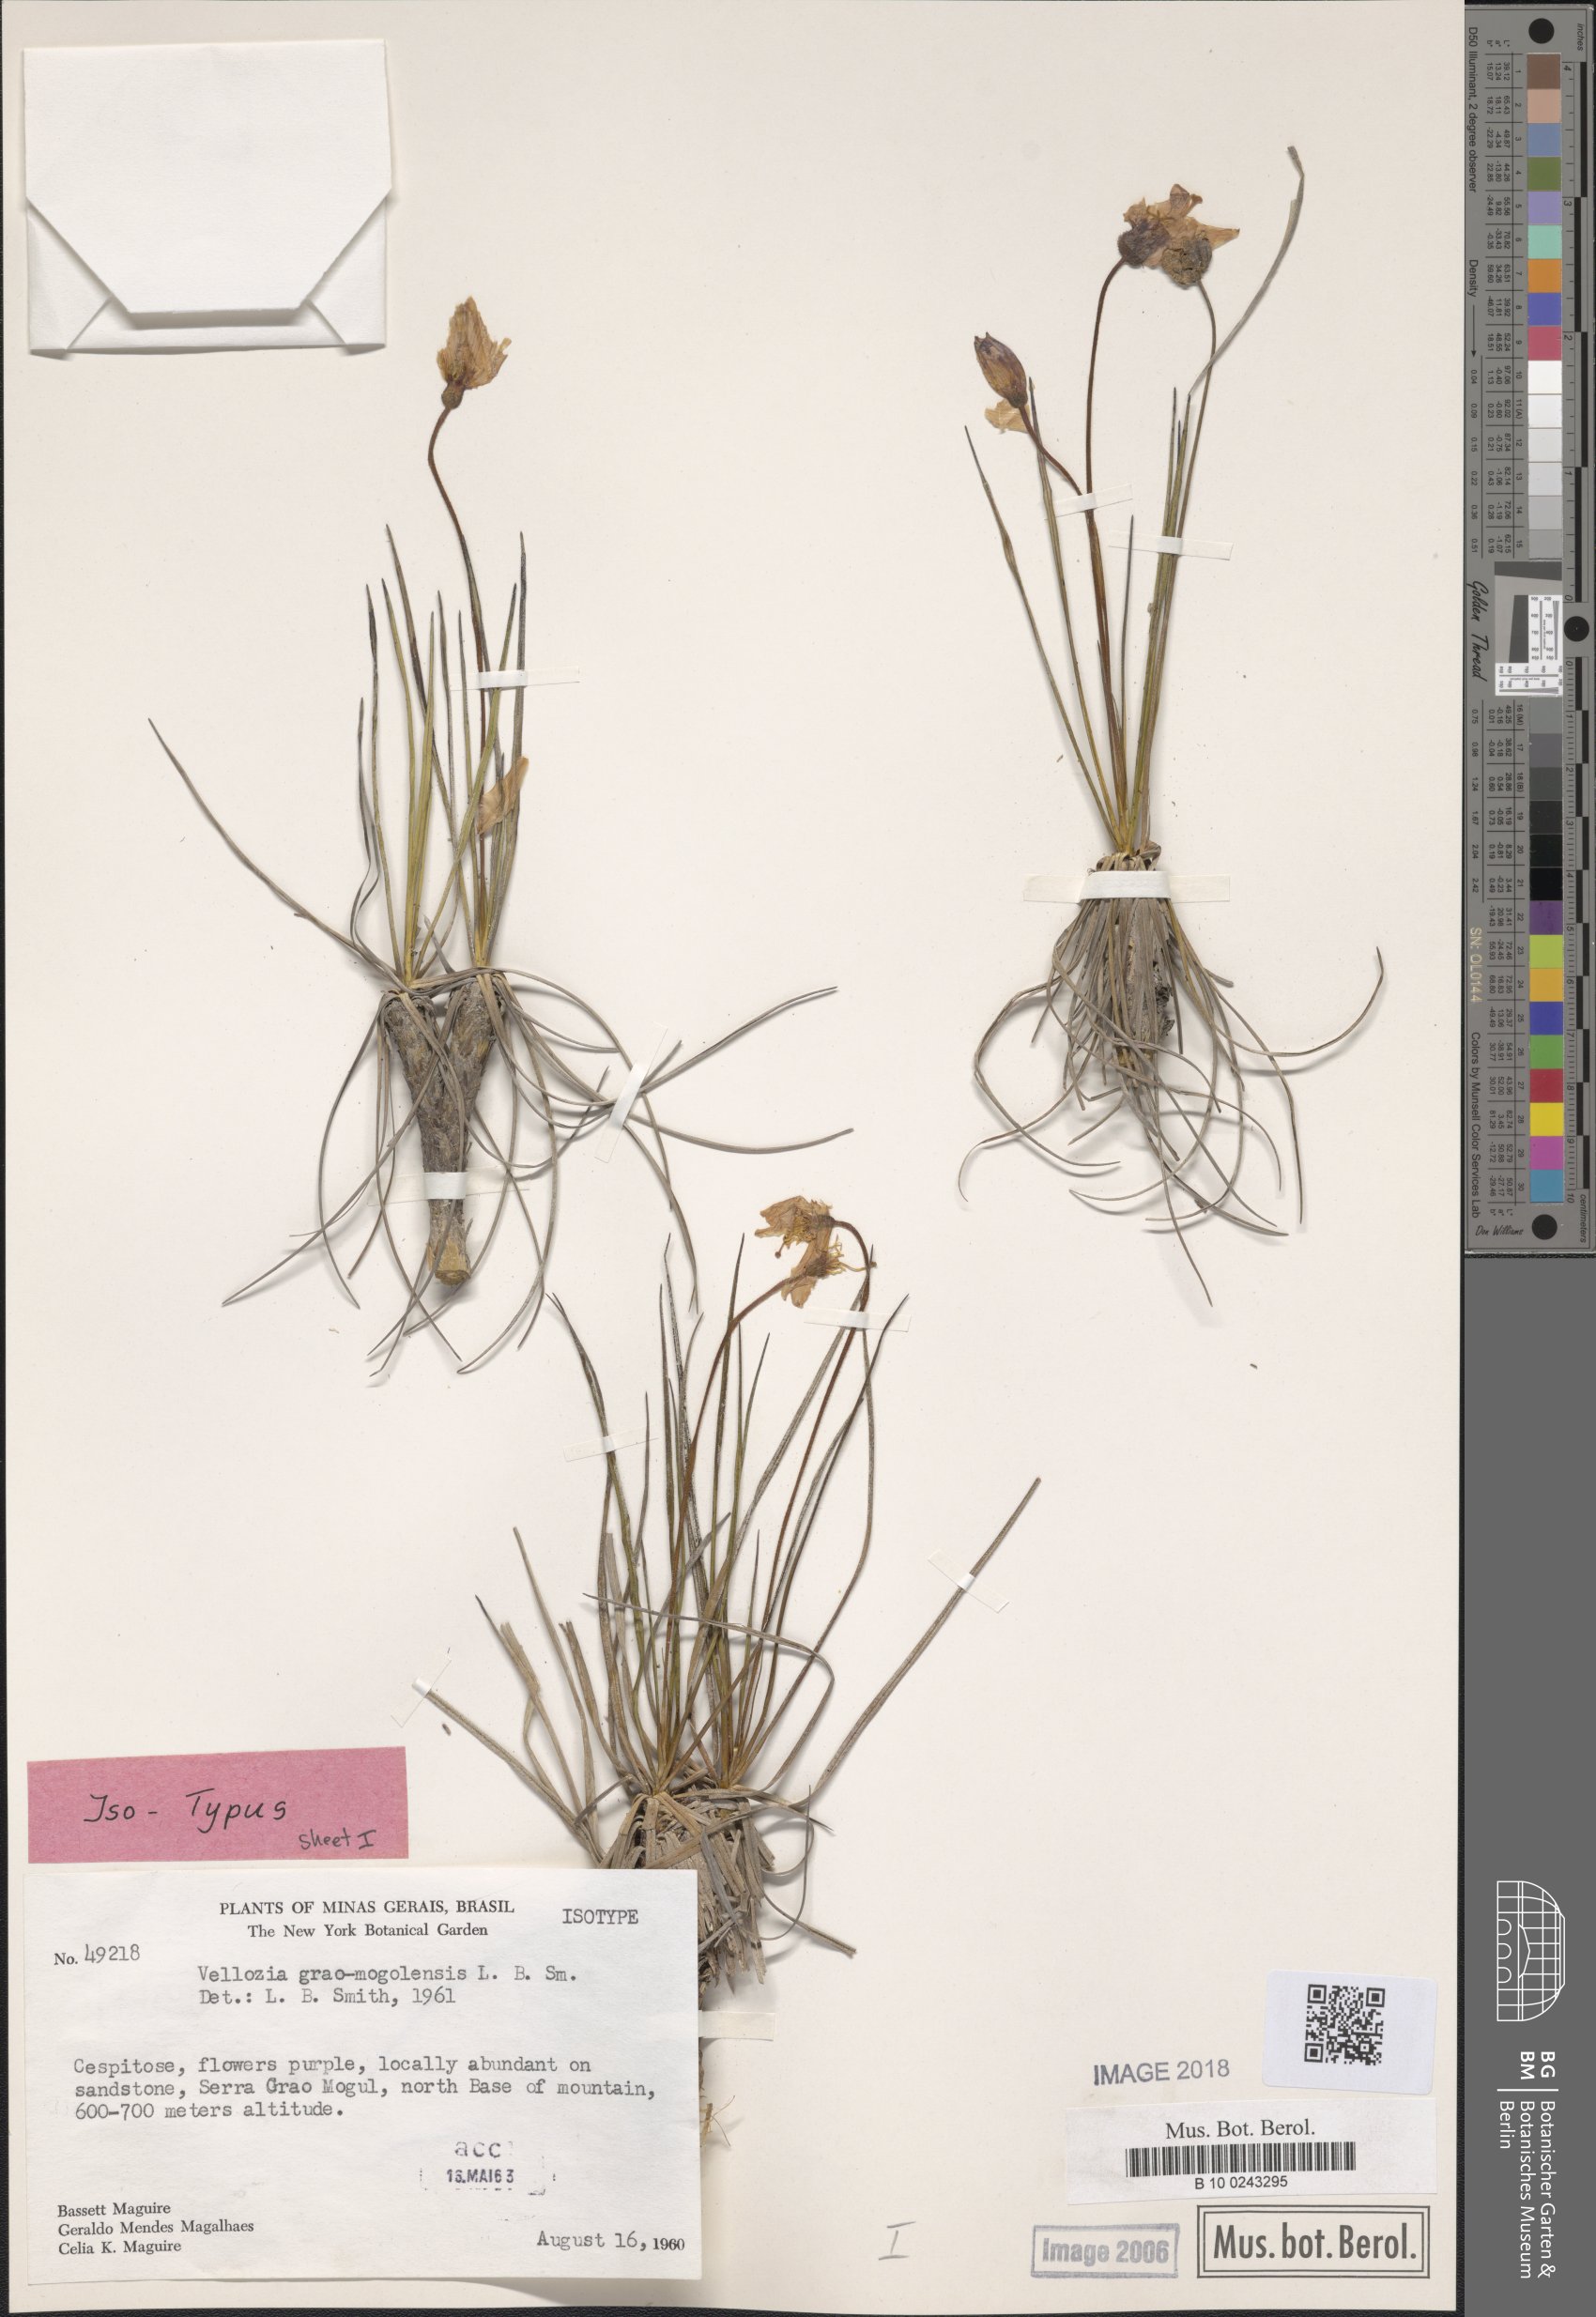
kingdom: Plantae
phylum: Tracheophyta
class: Liliopsida
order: Pandanales
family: Velloziaceae
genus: Vellozia
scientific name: Vellozia graomogolensis
